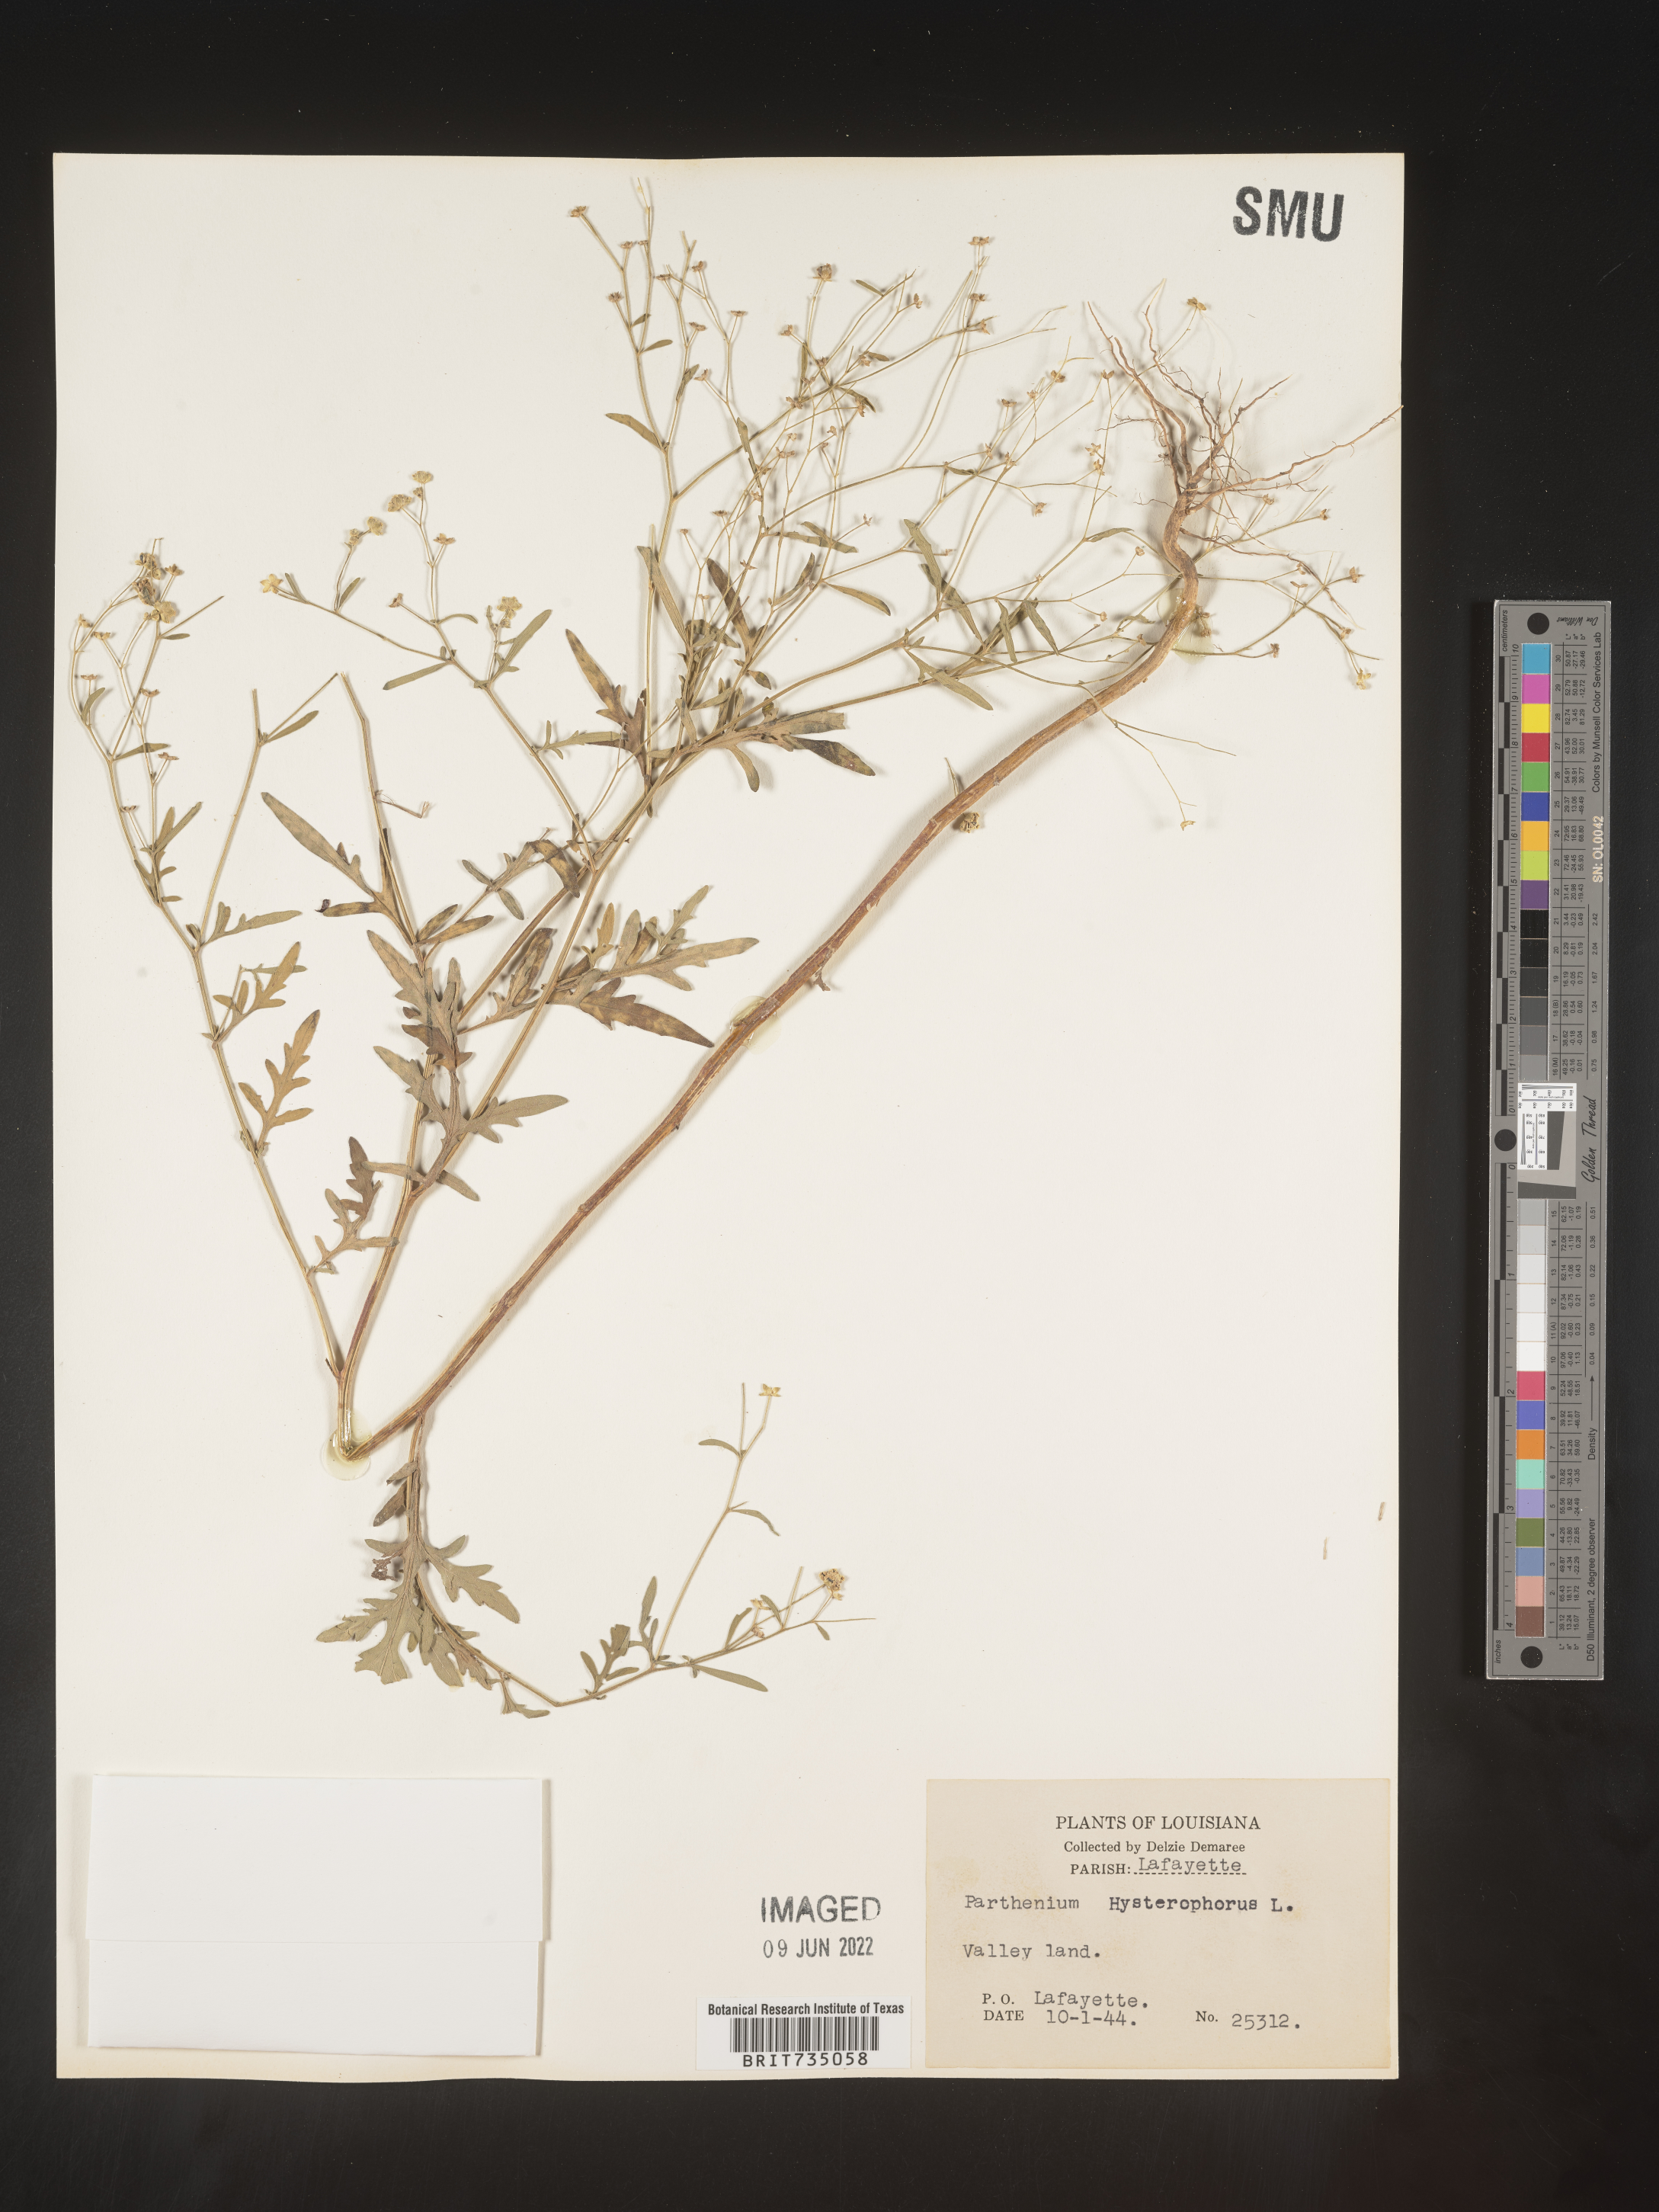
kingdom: Plantae
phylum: Tracheophyta
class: Magnoliopsida
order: Asterales
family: Asteraceae
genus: Parthenium
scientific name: Parthenium hysterophorus
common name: Santa maria feverfew
